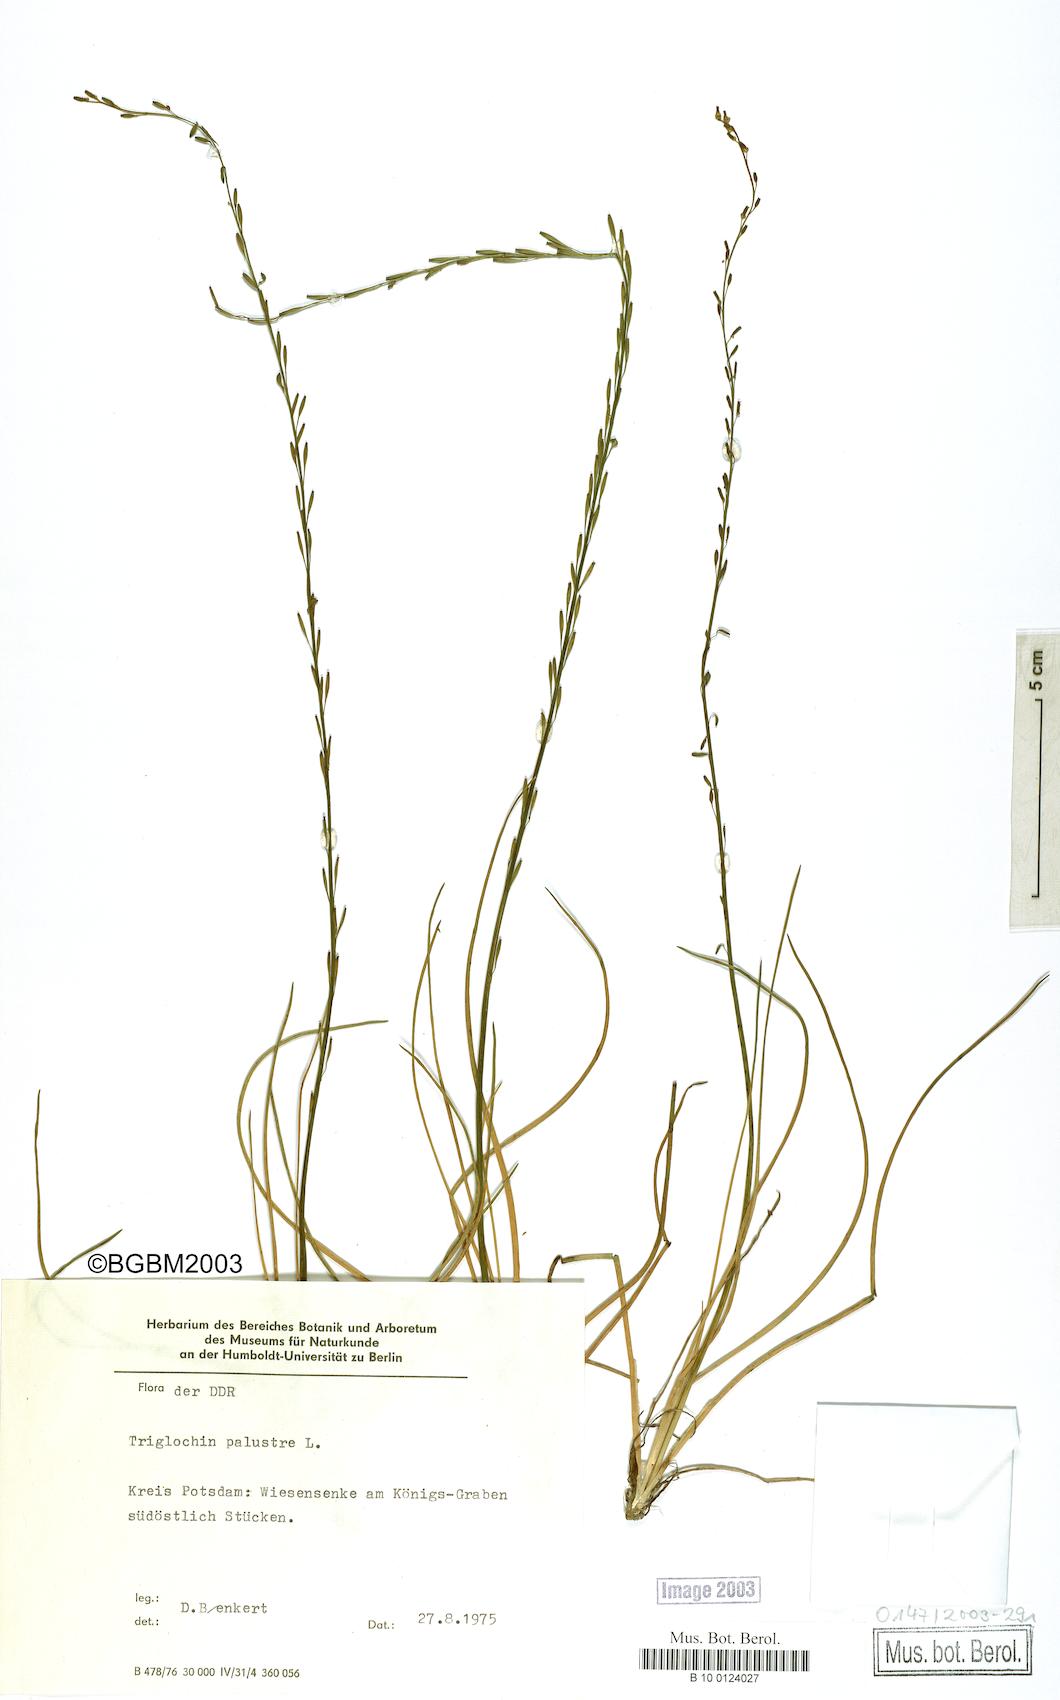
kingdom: Plantae
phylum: Tracheophyta
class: Liliopsida
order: Alismatales
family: Juncaginaceae
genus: Triglochin
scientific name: Triglochin palustris
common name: Marsh arrowgrass
